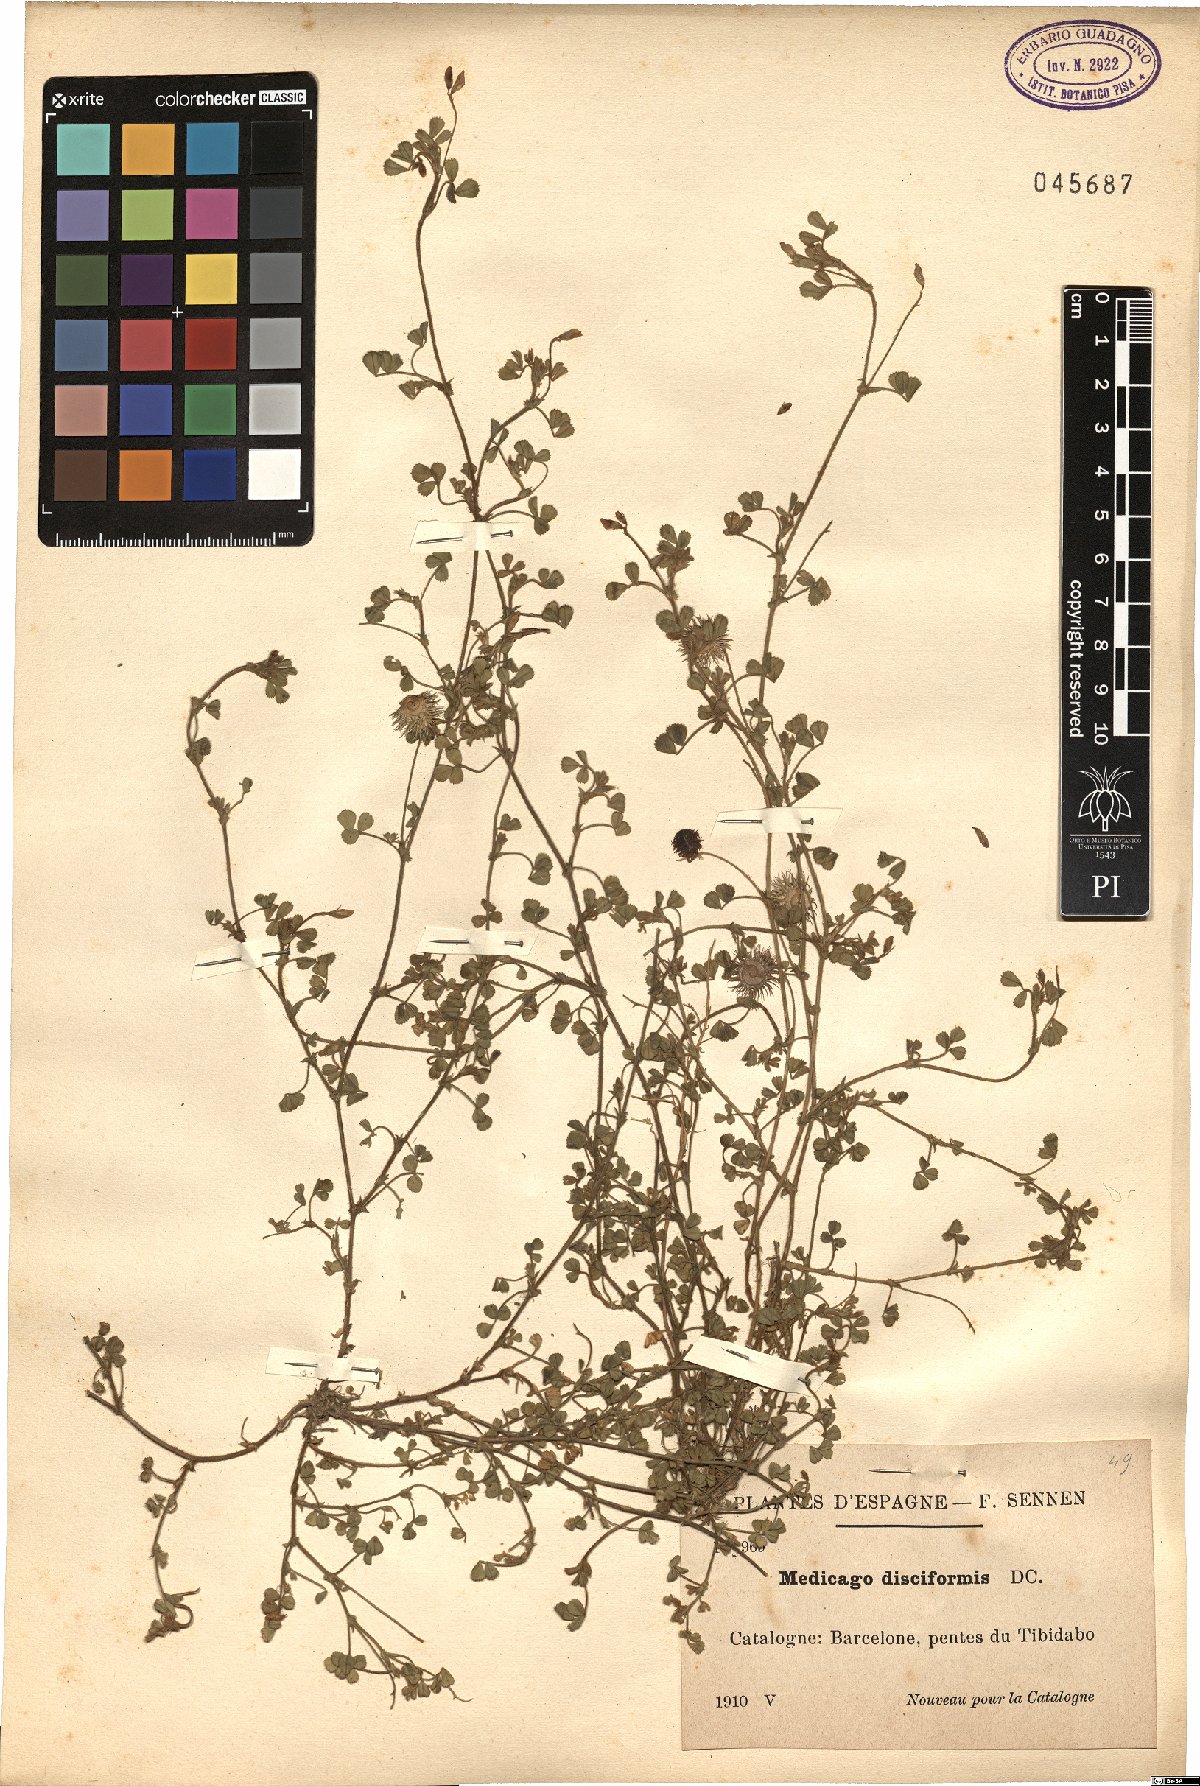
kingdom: Plantae
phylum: Tracheophyta
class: Magnoliopsida
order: Fabales
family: Fabaceae
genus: Medicago
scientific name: Medicago disciformis
